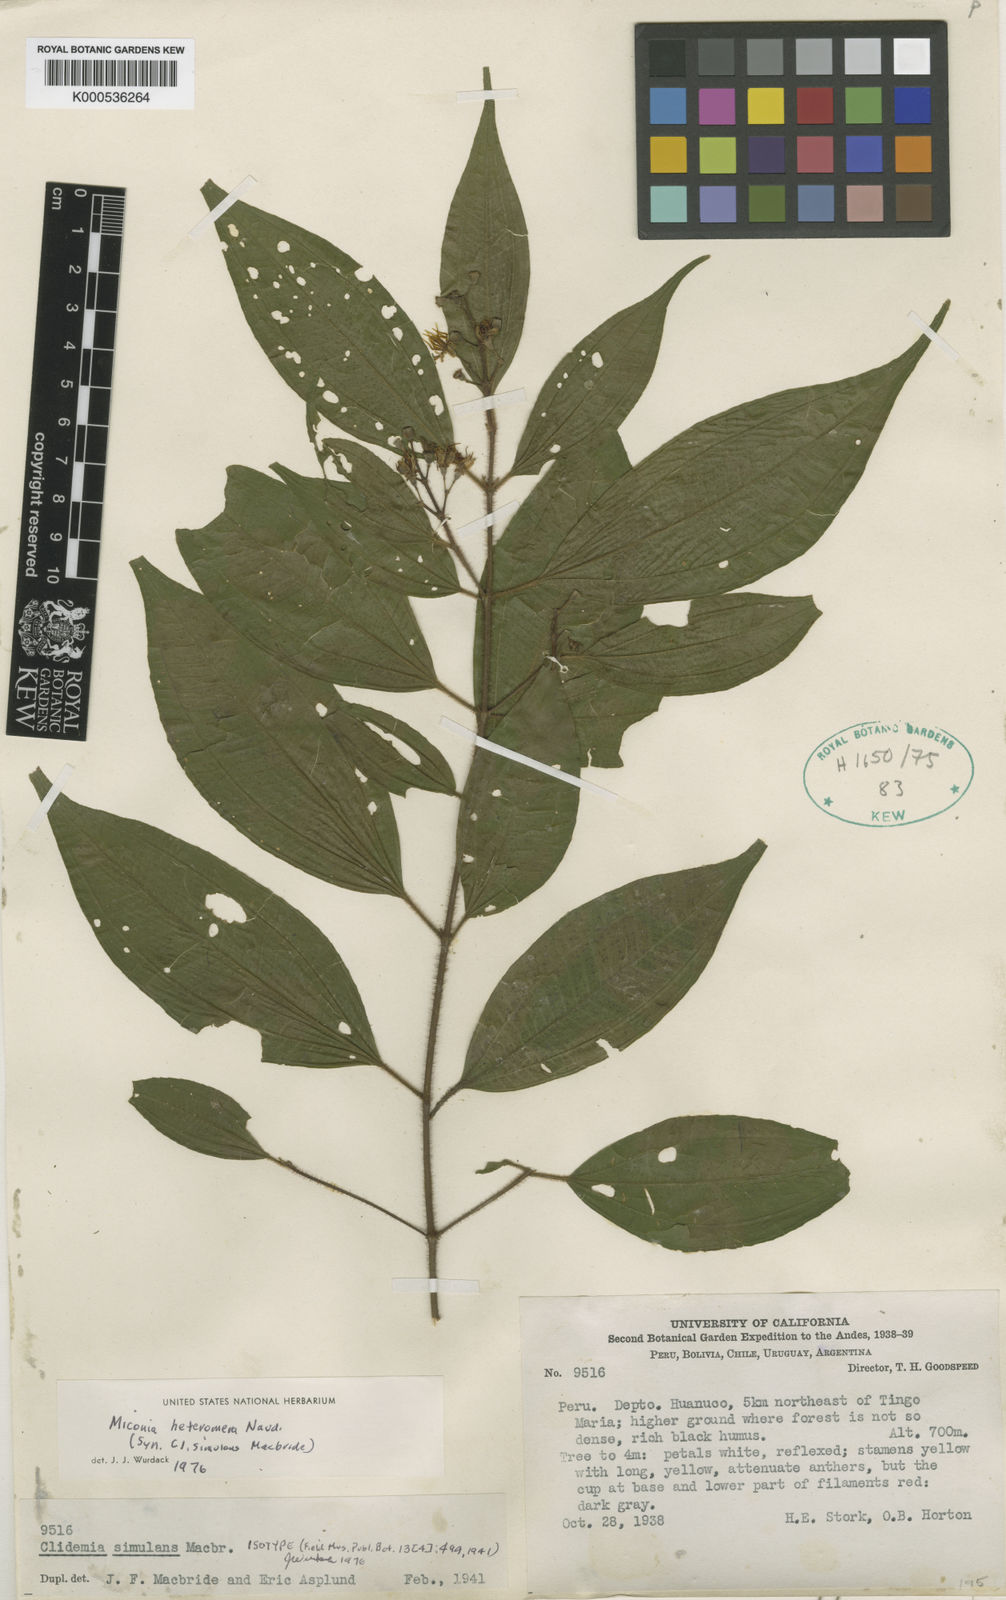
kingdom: Plantae
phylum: Tracheophyta
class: Magnoliopsida
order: Myrtales
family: Melastomataceae
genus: Miconia
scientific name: Miconia heteromera
